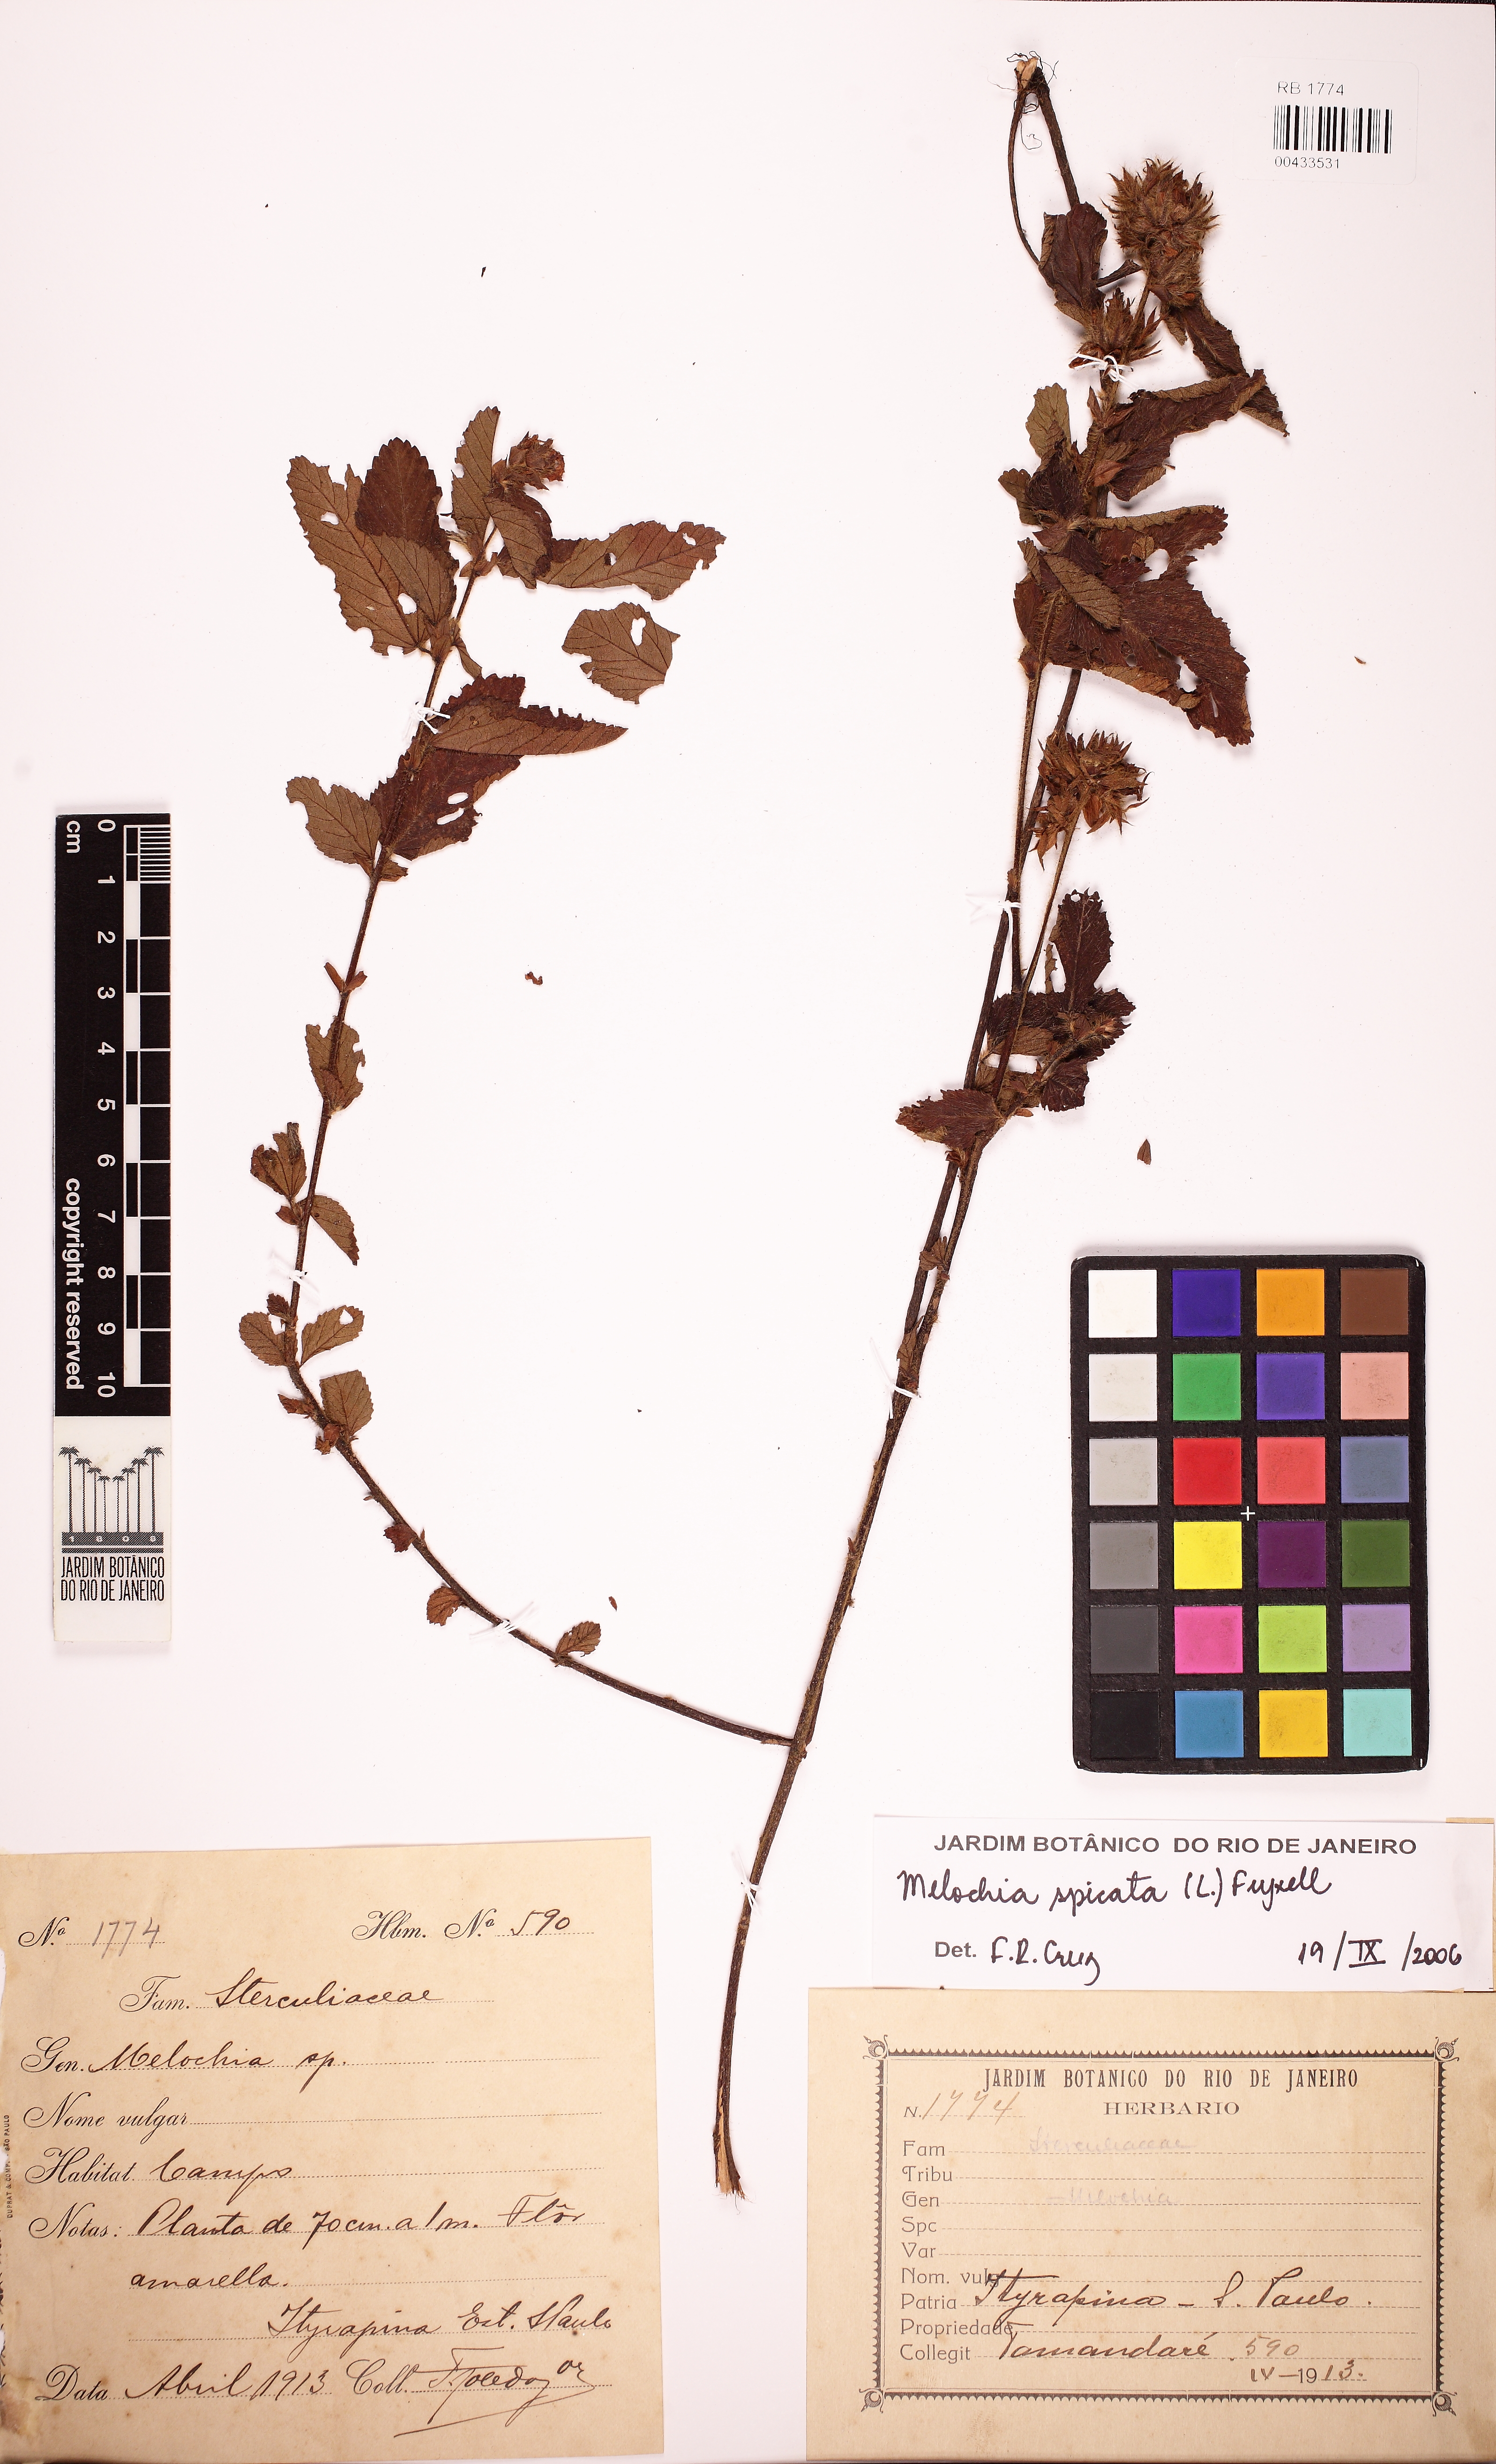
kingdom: Plantae
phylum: Tracheophyta
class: Magnoliopsida
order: Malvales
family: Malvaceae
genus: Melochia
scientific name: Melochia spicata
